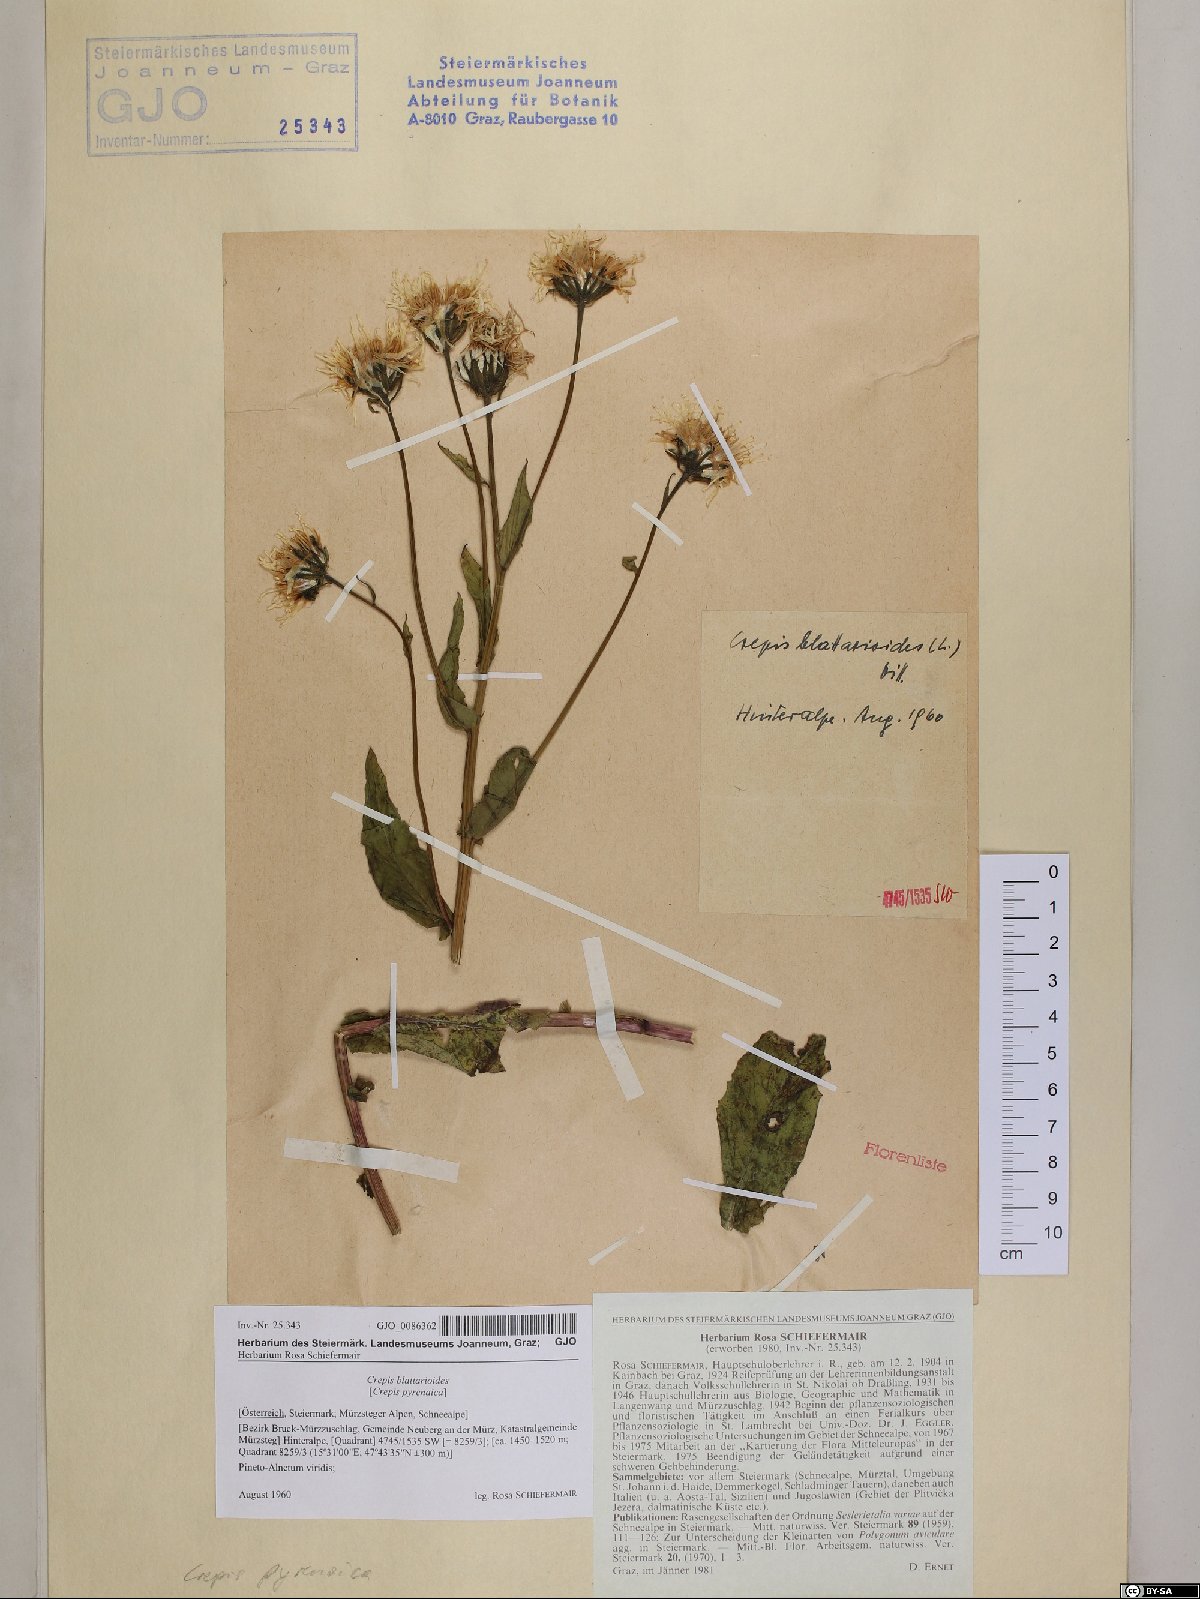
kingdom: Plantae
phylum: Tracheophyta
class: Magnoliopsida
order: Asterales
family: Asteraceae
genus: Crepis
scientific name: Crepis blattarioides
